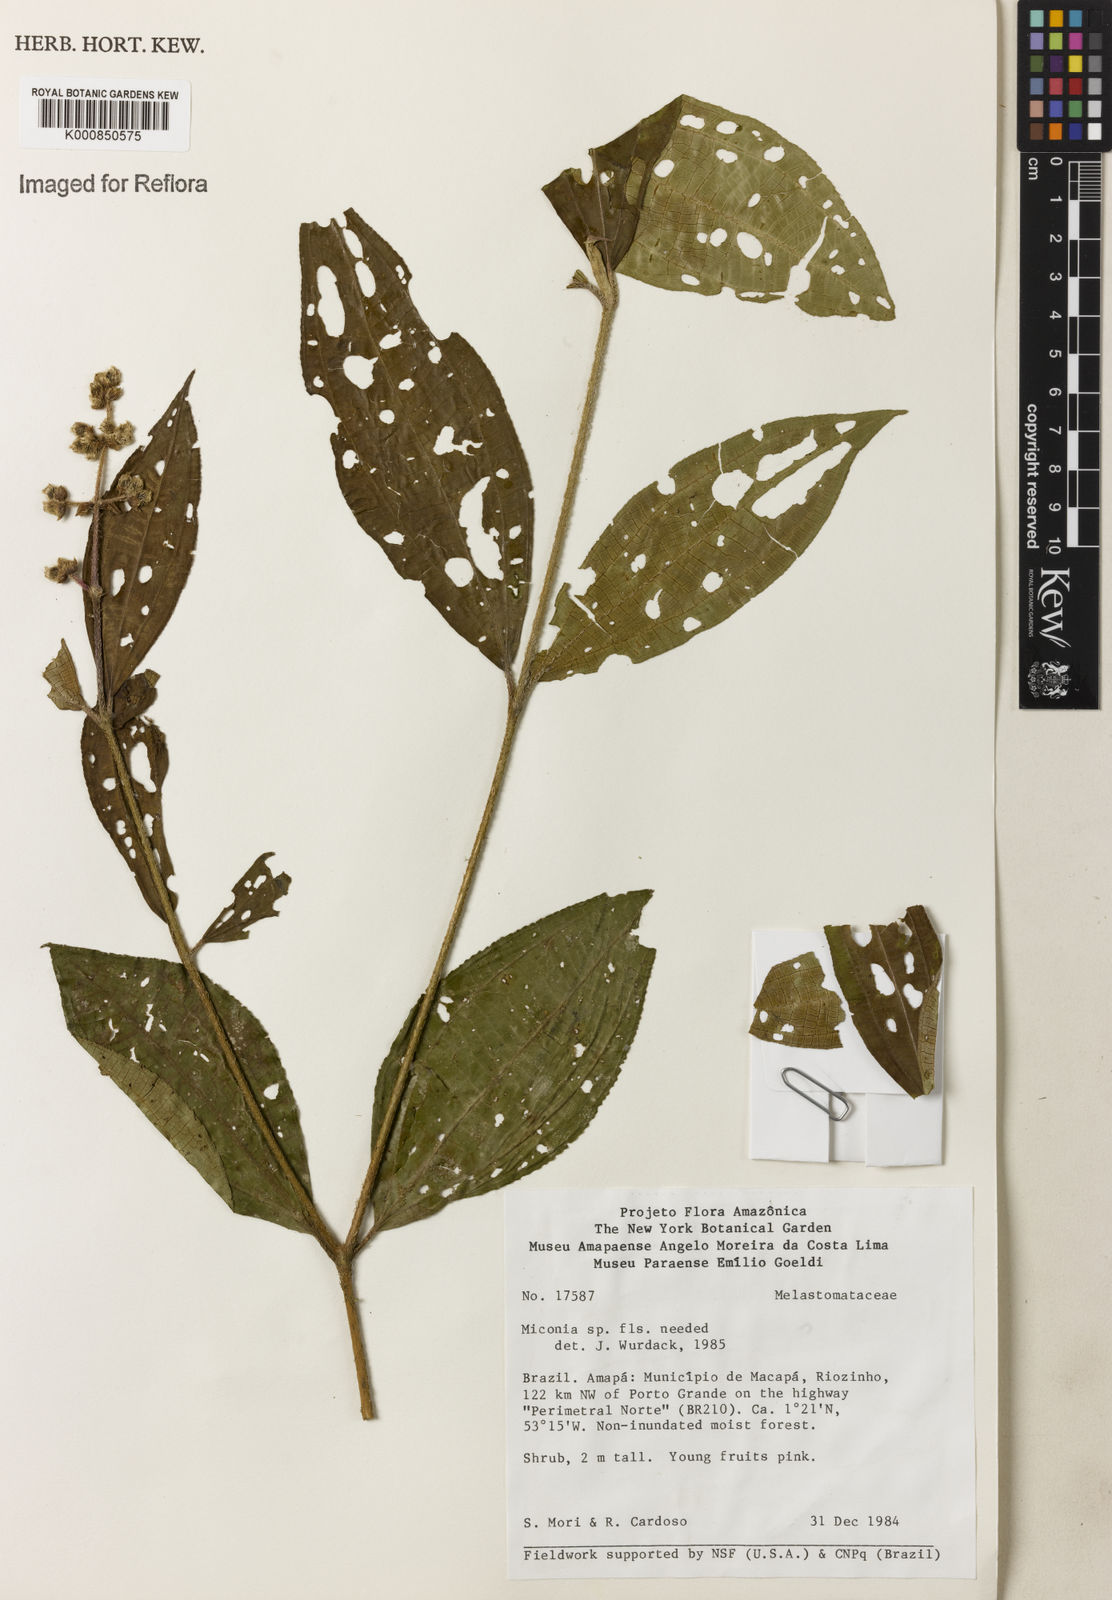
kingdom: Plantae
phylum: Tracheophyta
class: Magnoliopsida
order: Myrtales
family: Melastomataceae
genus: Miconia
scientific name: Miconia
